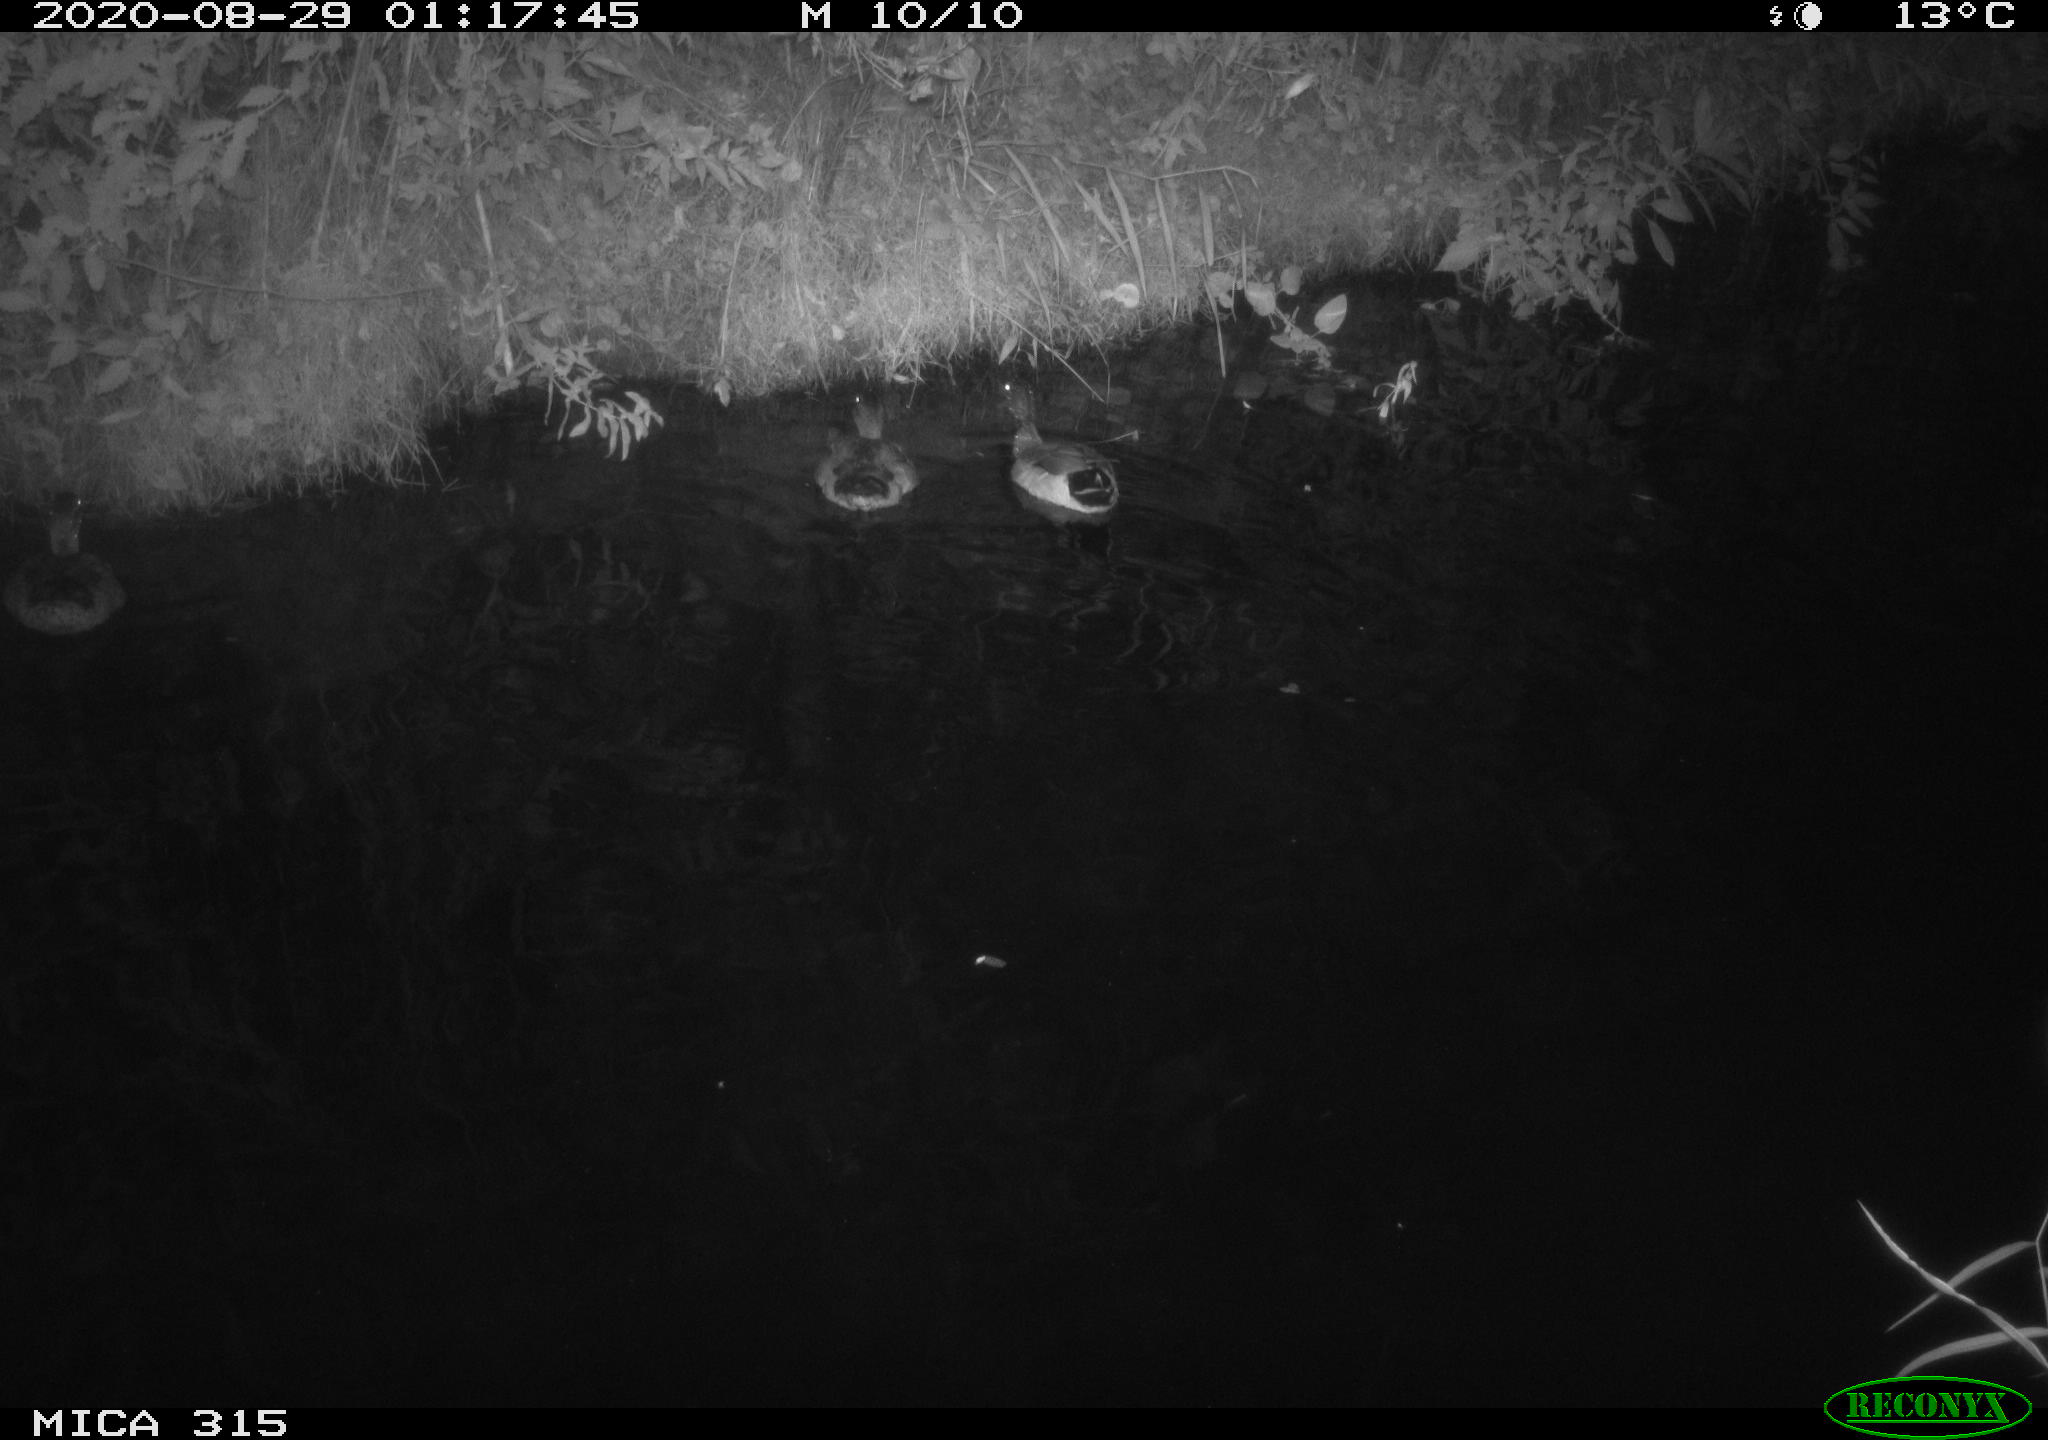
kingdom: Animalia
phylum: Chordata
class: Aves
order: Anseriformes
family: Anatidae
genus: Anas
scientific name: Anas platyrhynchos
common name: Mallard
